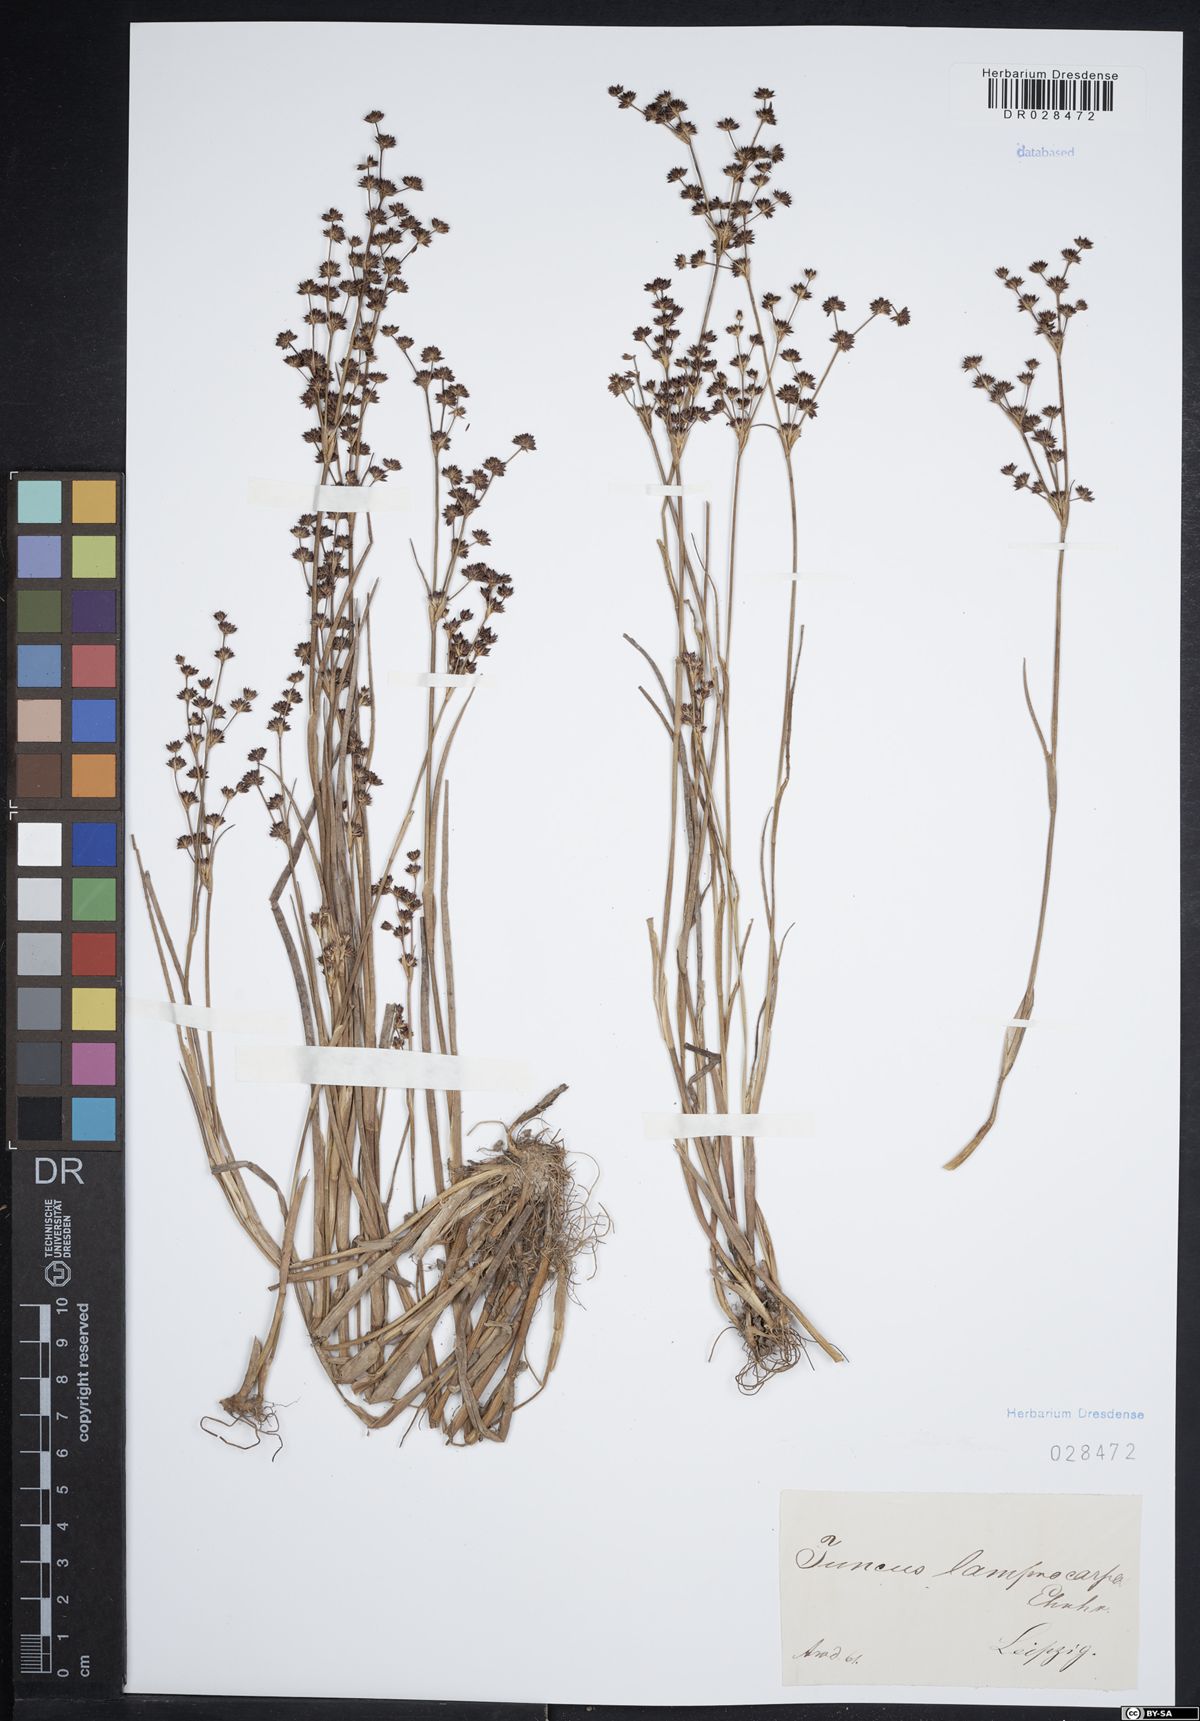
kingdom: Plantae
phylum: Tracheophyta
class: Liliopsida
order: Poales
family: Juncaceae
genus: Juncus
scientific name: Juncus articulatus
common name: Jointed rush
